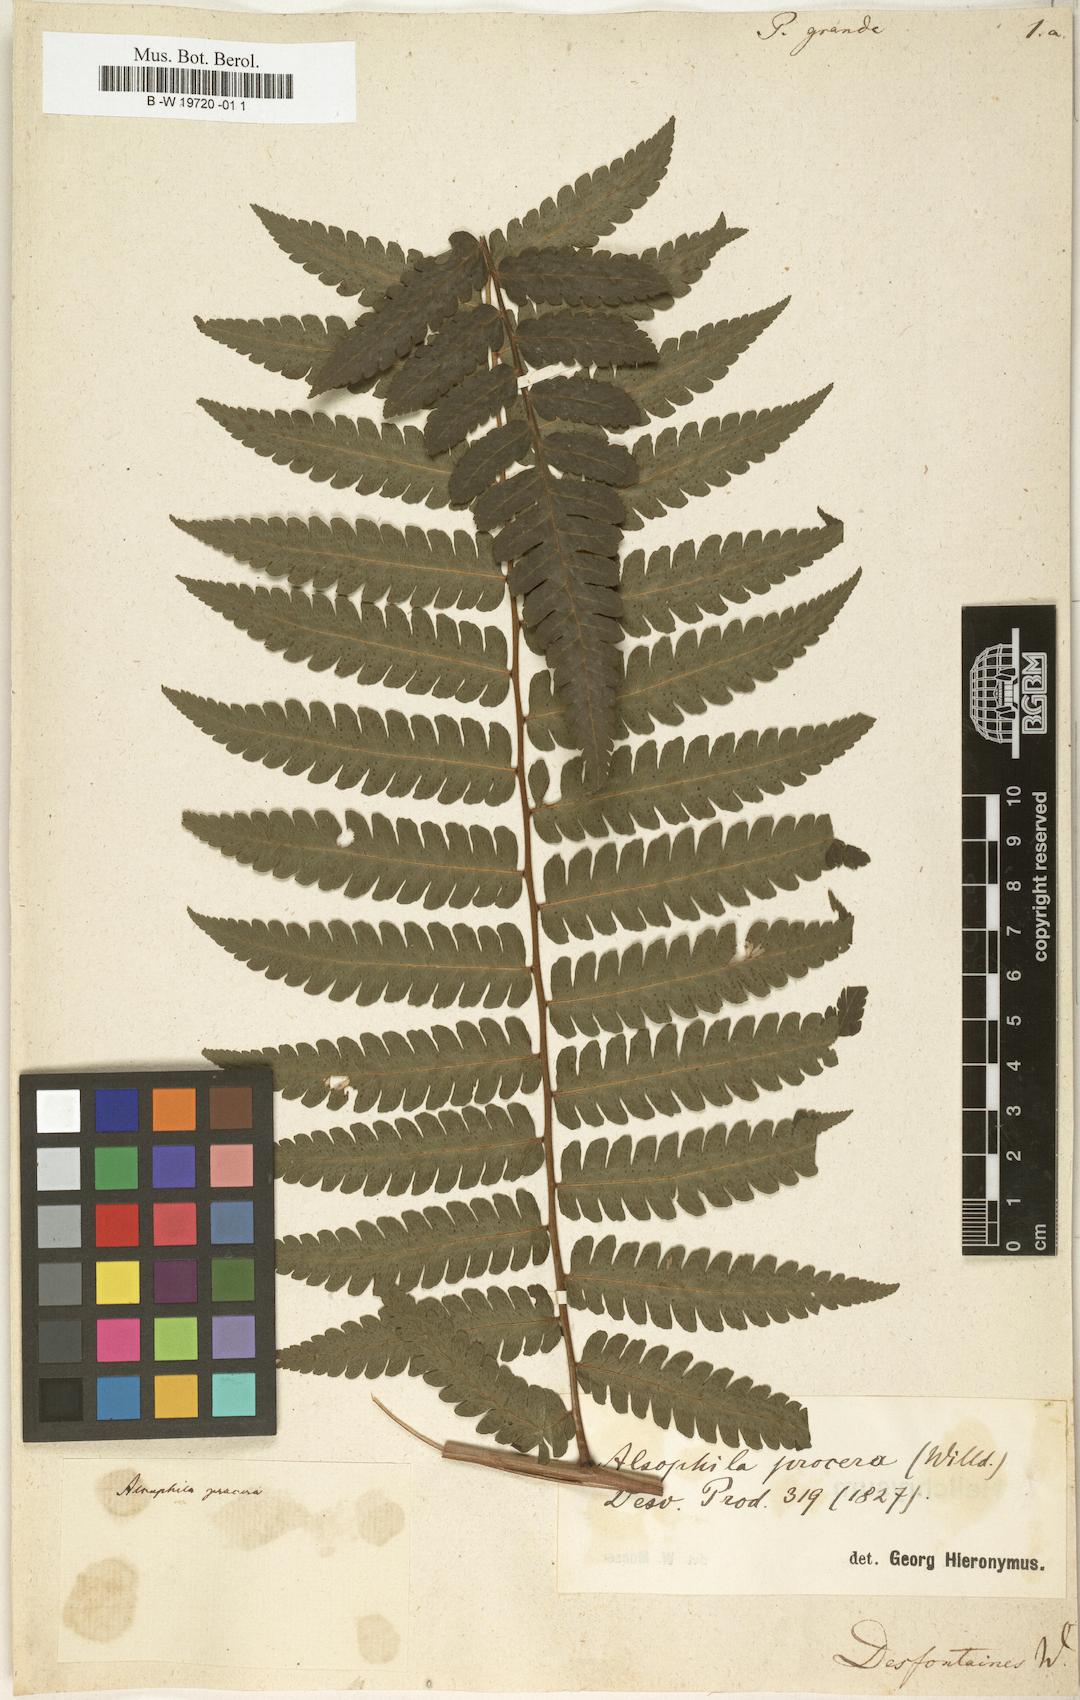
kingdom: Plantae
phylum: Tracheophyta
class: Polypodiopsida
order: Polypodiales
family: Dryopteridaceae
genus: Megalastrum
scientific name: Megalastrum grande
